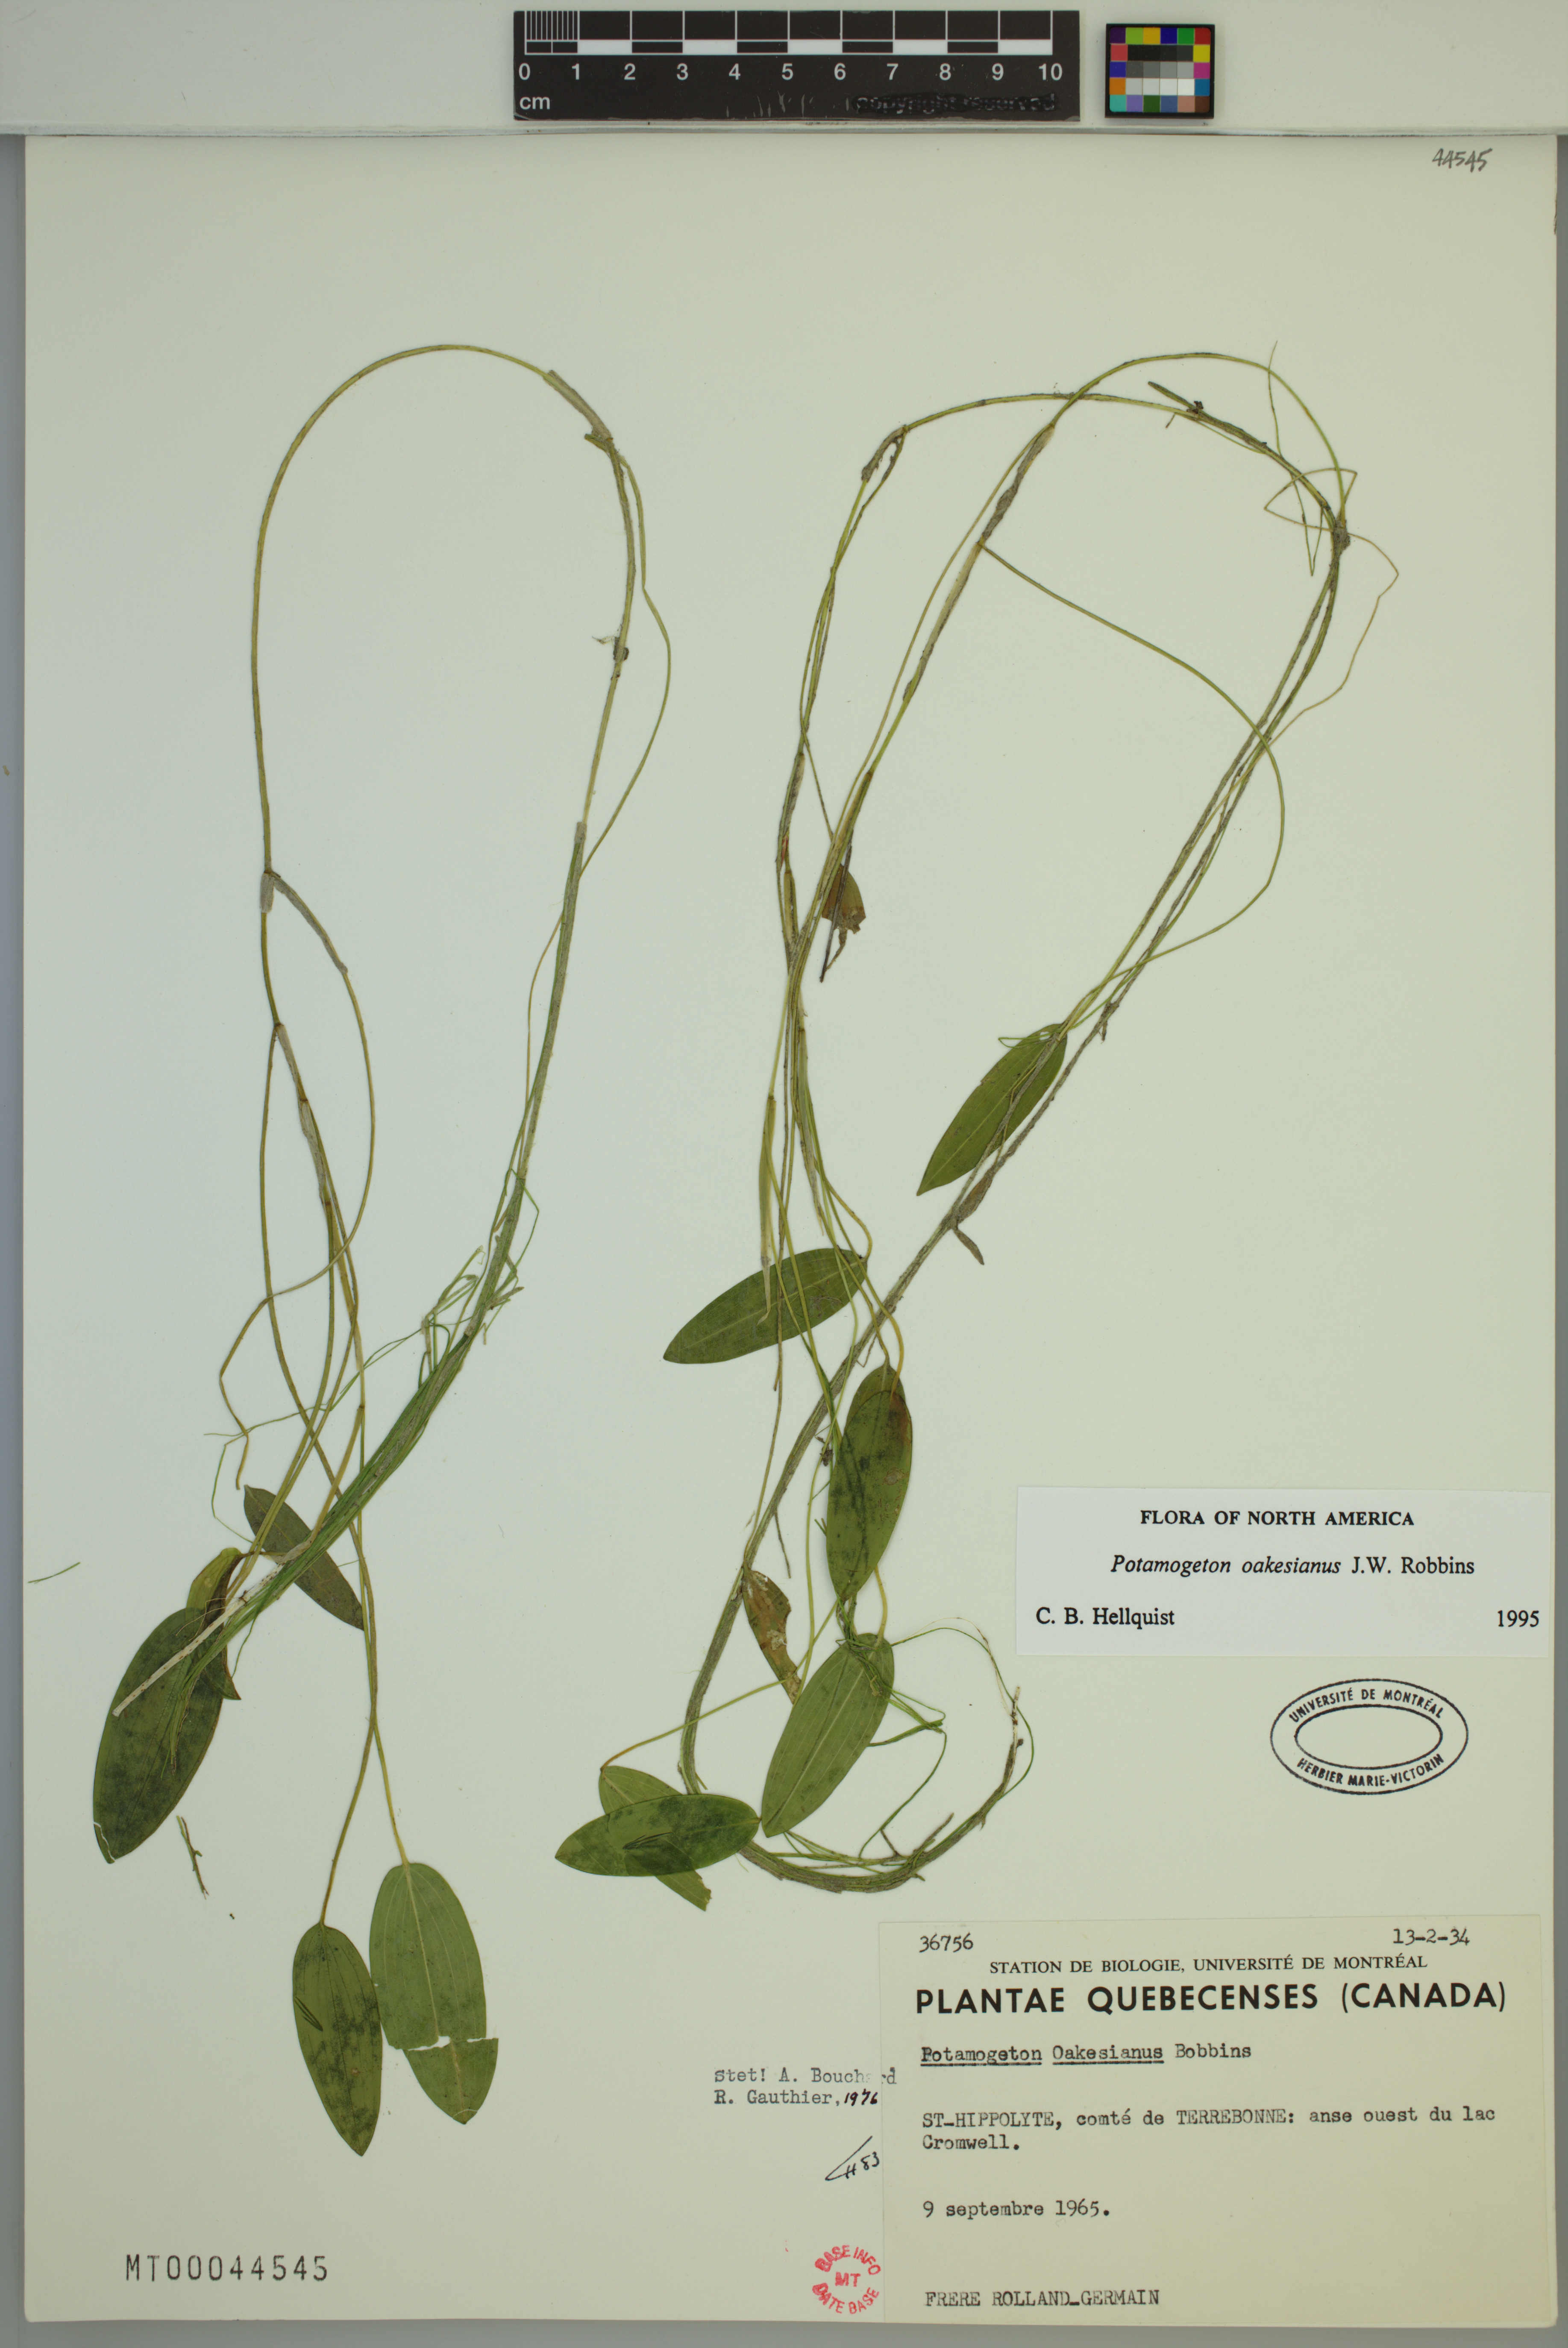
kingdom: Plantae
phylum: Tracheophyta
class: Liliopsida
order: Alismatales
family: Potamogetonaceae
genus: Potamogeton
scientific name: Potamogeton oakesianus
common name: Oakes' pondweed
